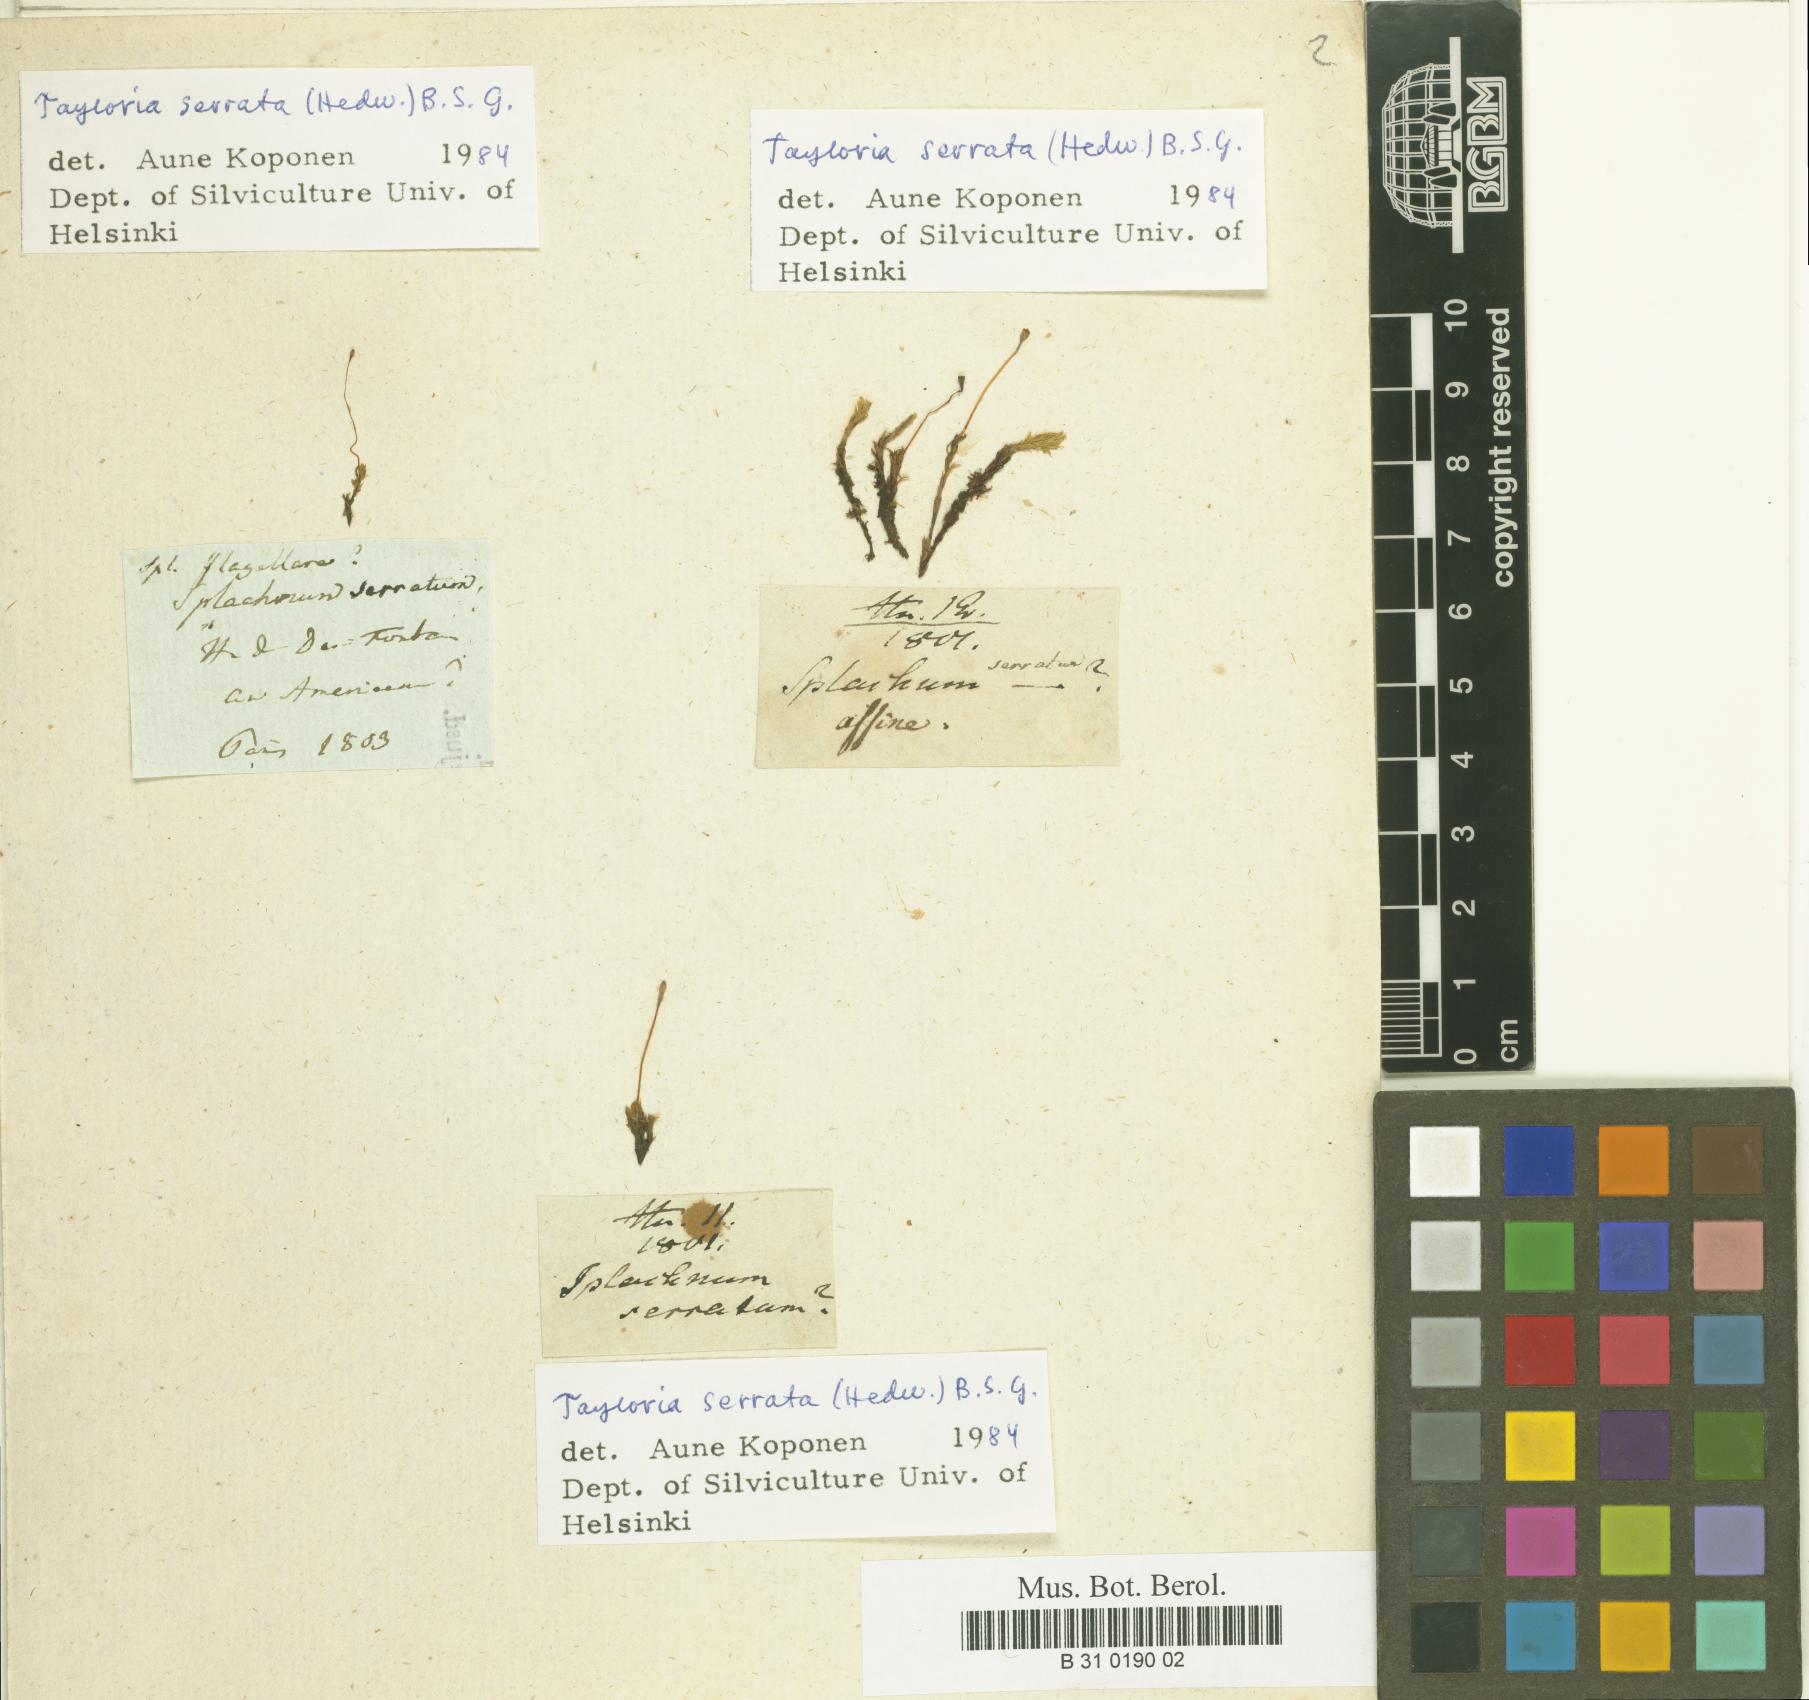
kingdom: Plantae
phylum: Bryophyta
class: Bryopsida
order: Splachnales
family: Splachnaceae
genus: Tayloria
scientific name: Tayloria serrata
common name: Serrate trumpet moss
